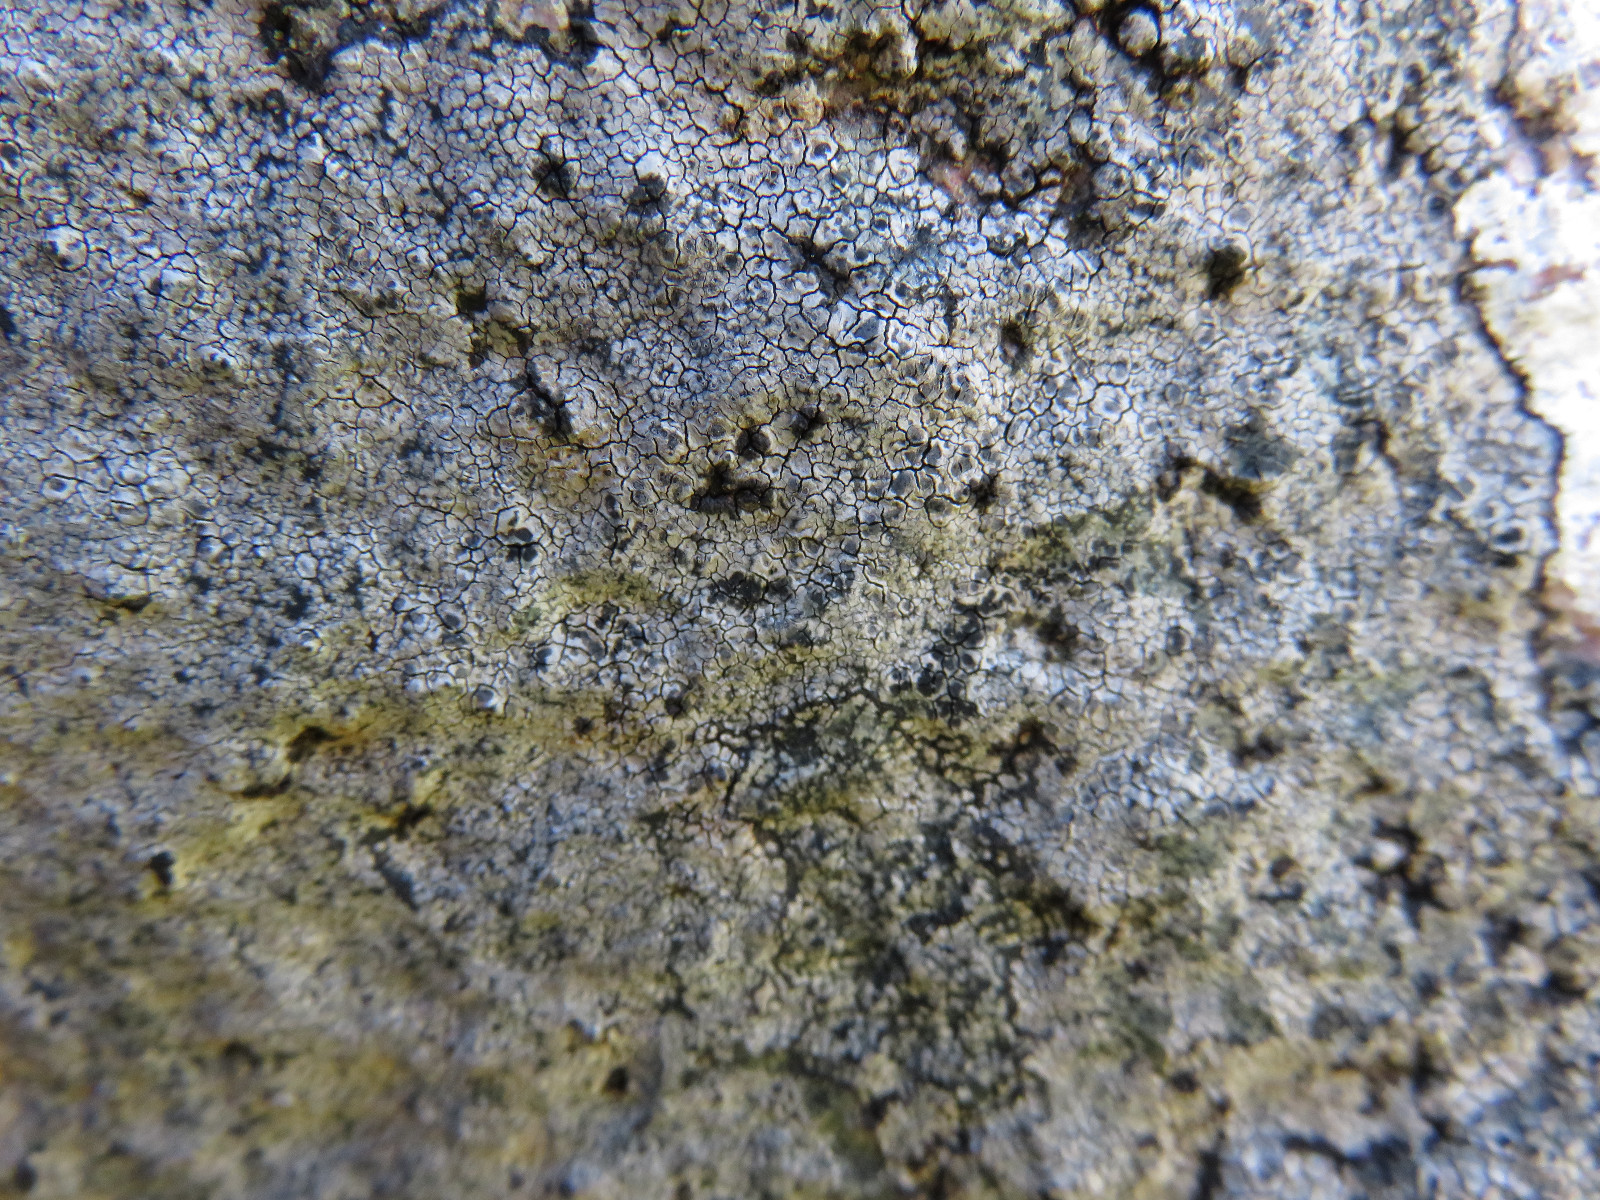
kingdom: Fungi
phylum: Ascomycota
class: Lecanoromycetes
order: Pertusariales
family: Megasporaceae
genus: Aspicilia
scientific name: Aspicilia cinerea
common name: grå hulskivelav
